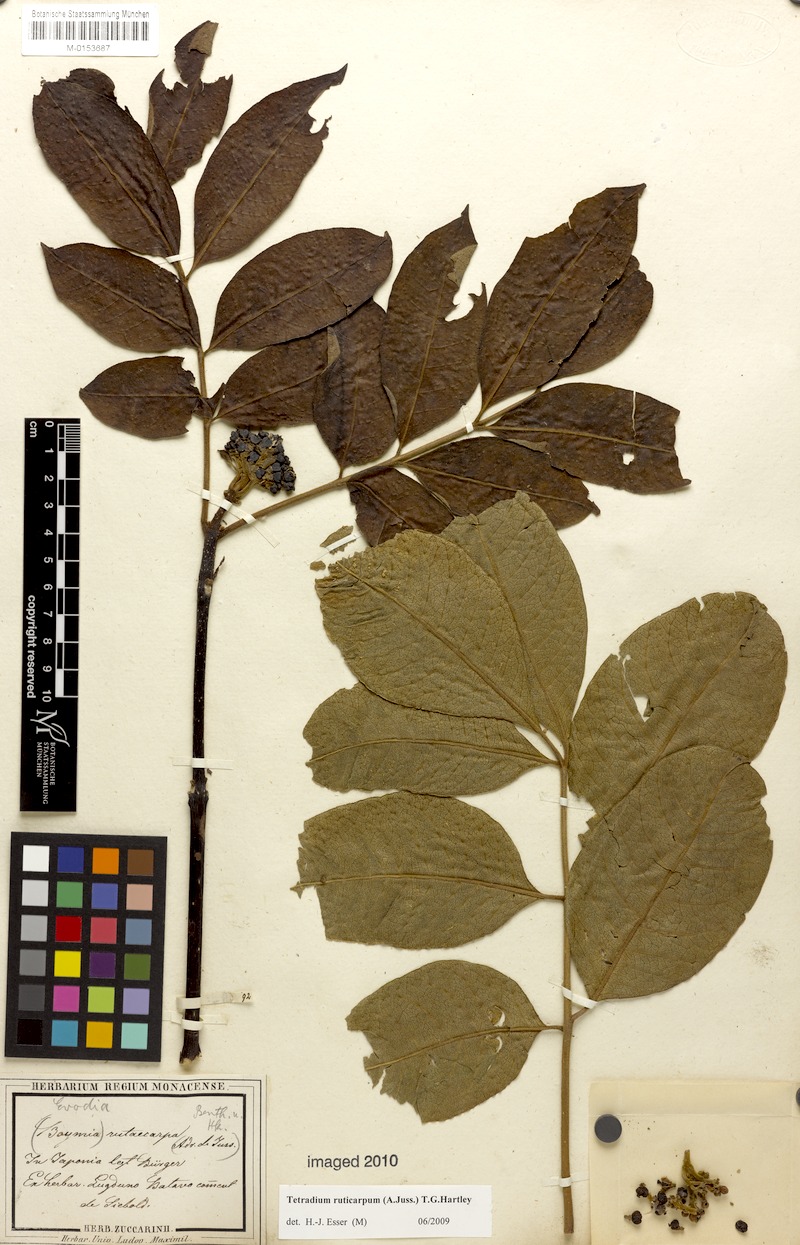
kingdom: Plantae
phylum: Tracheophyta
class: Magnoliopsida
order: Sapindales
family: Rutaceae
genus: Tetradium
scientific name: Tetradium ruticarpum
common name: Evodia
